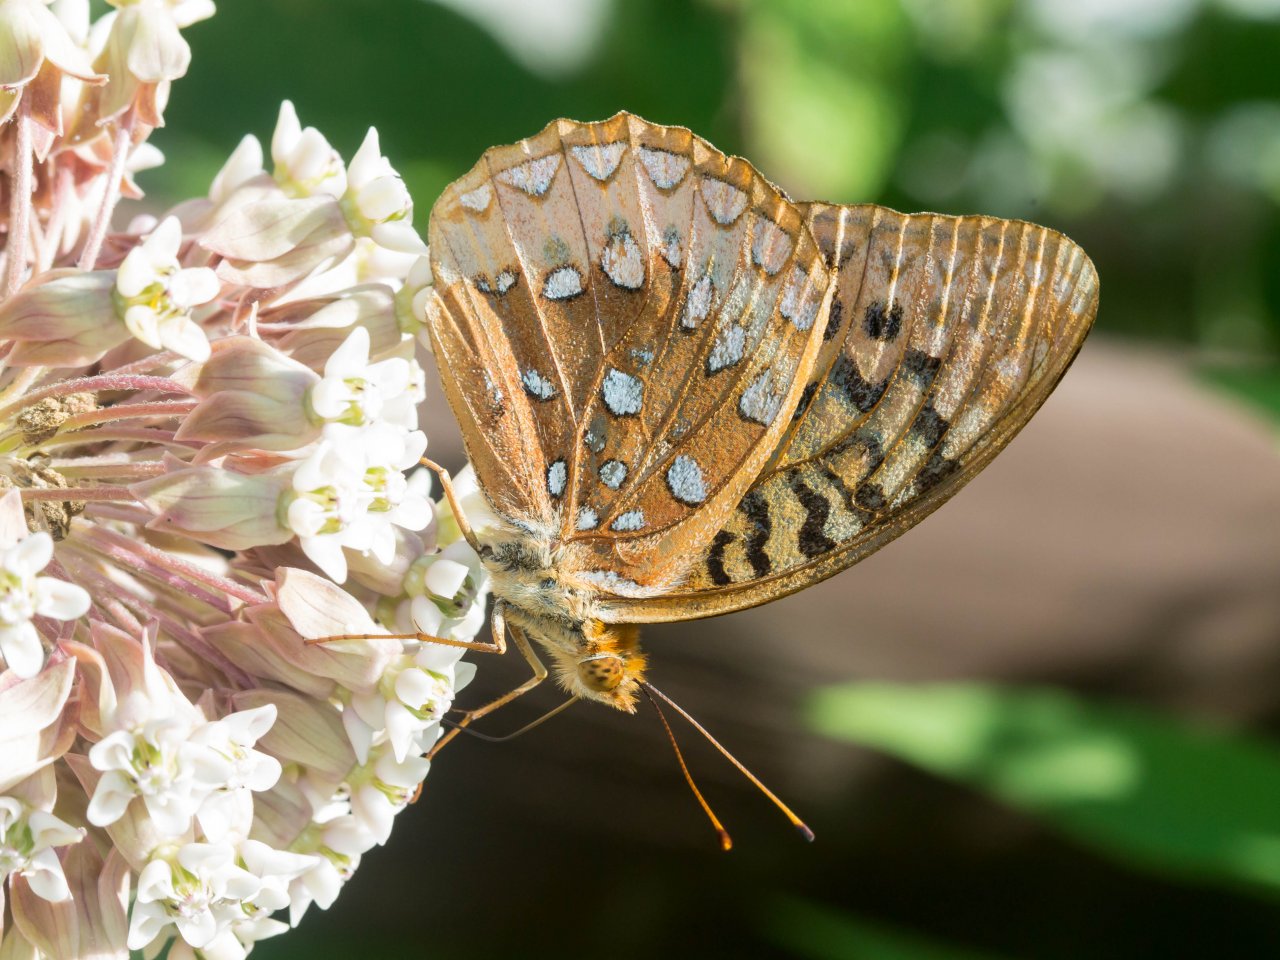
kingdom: Animalia
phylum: Arthropoda
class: Insecta
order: Lepidoptera
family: Nymphalidae
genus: Speyeria
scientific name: Speyeria cybele
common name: Great Spangled Fritillary
